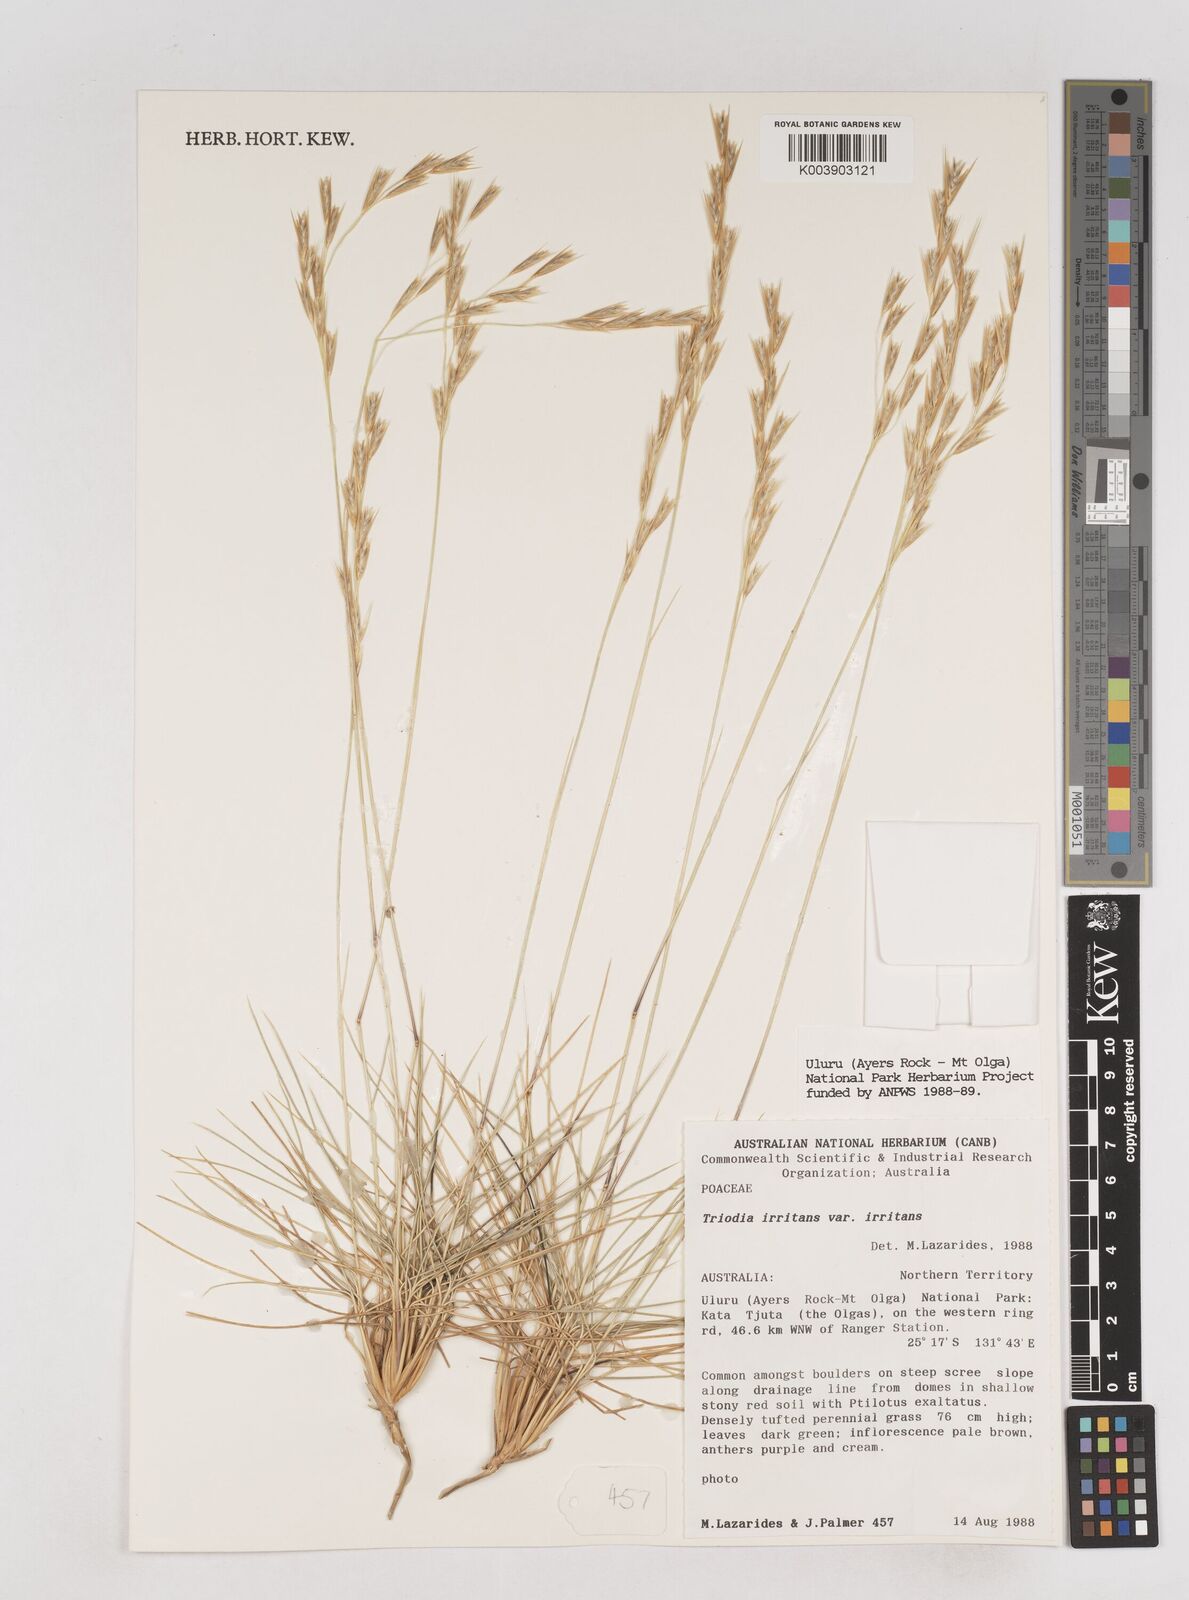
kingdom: Plantae
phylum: Tracheophyta
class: Liliopsida
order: Poales
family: Poaceae
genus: Triodia
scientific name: Triodia irritans
